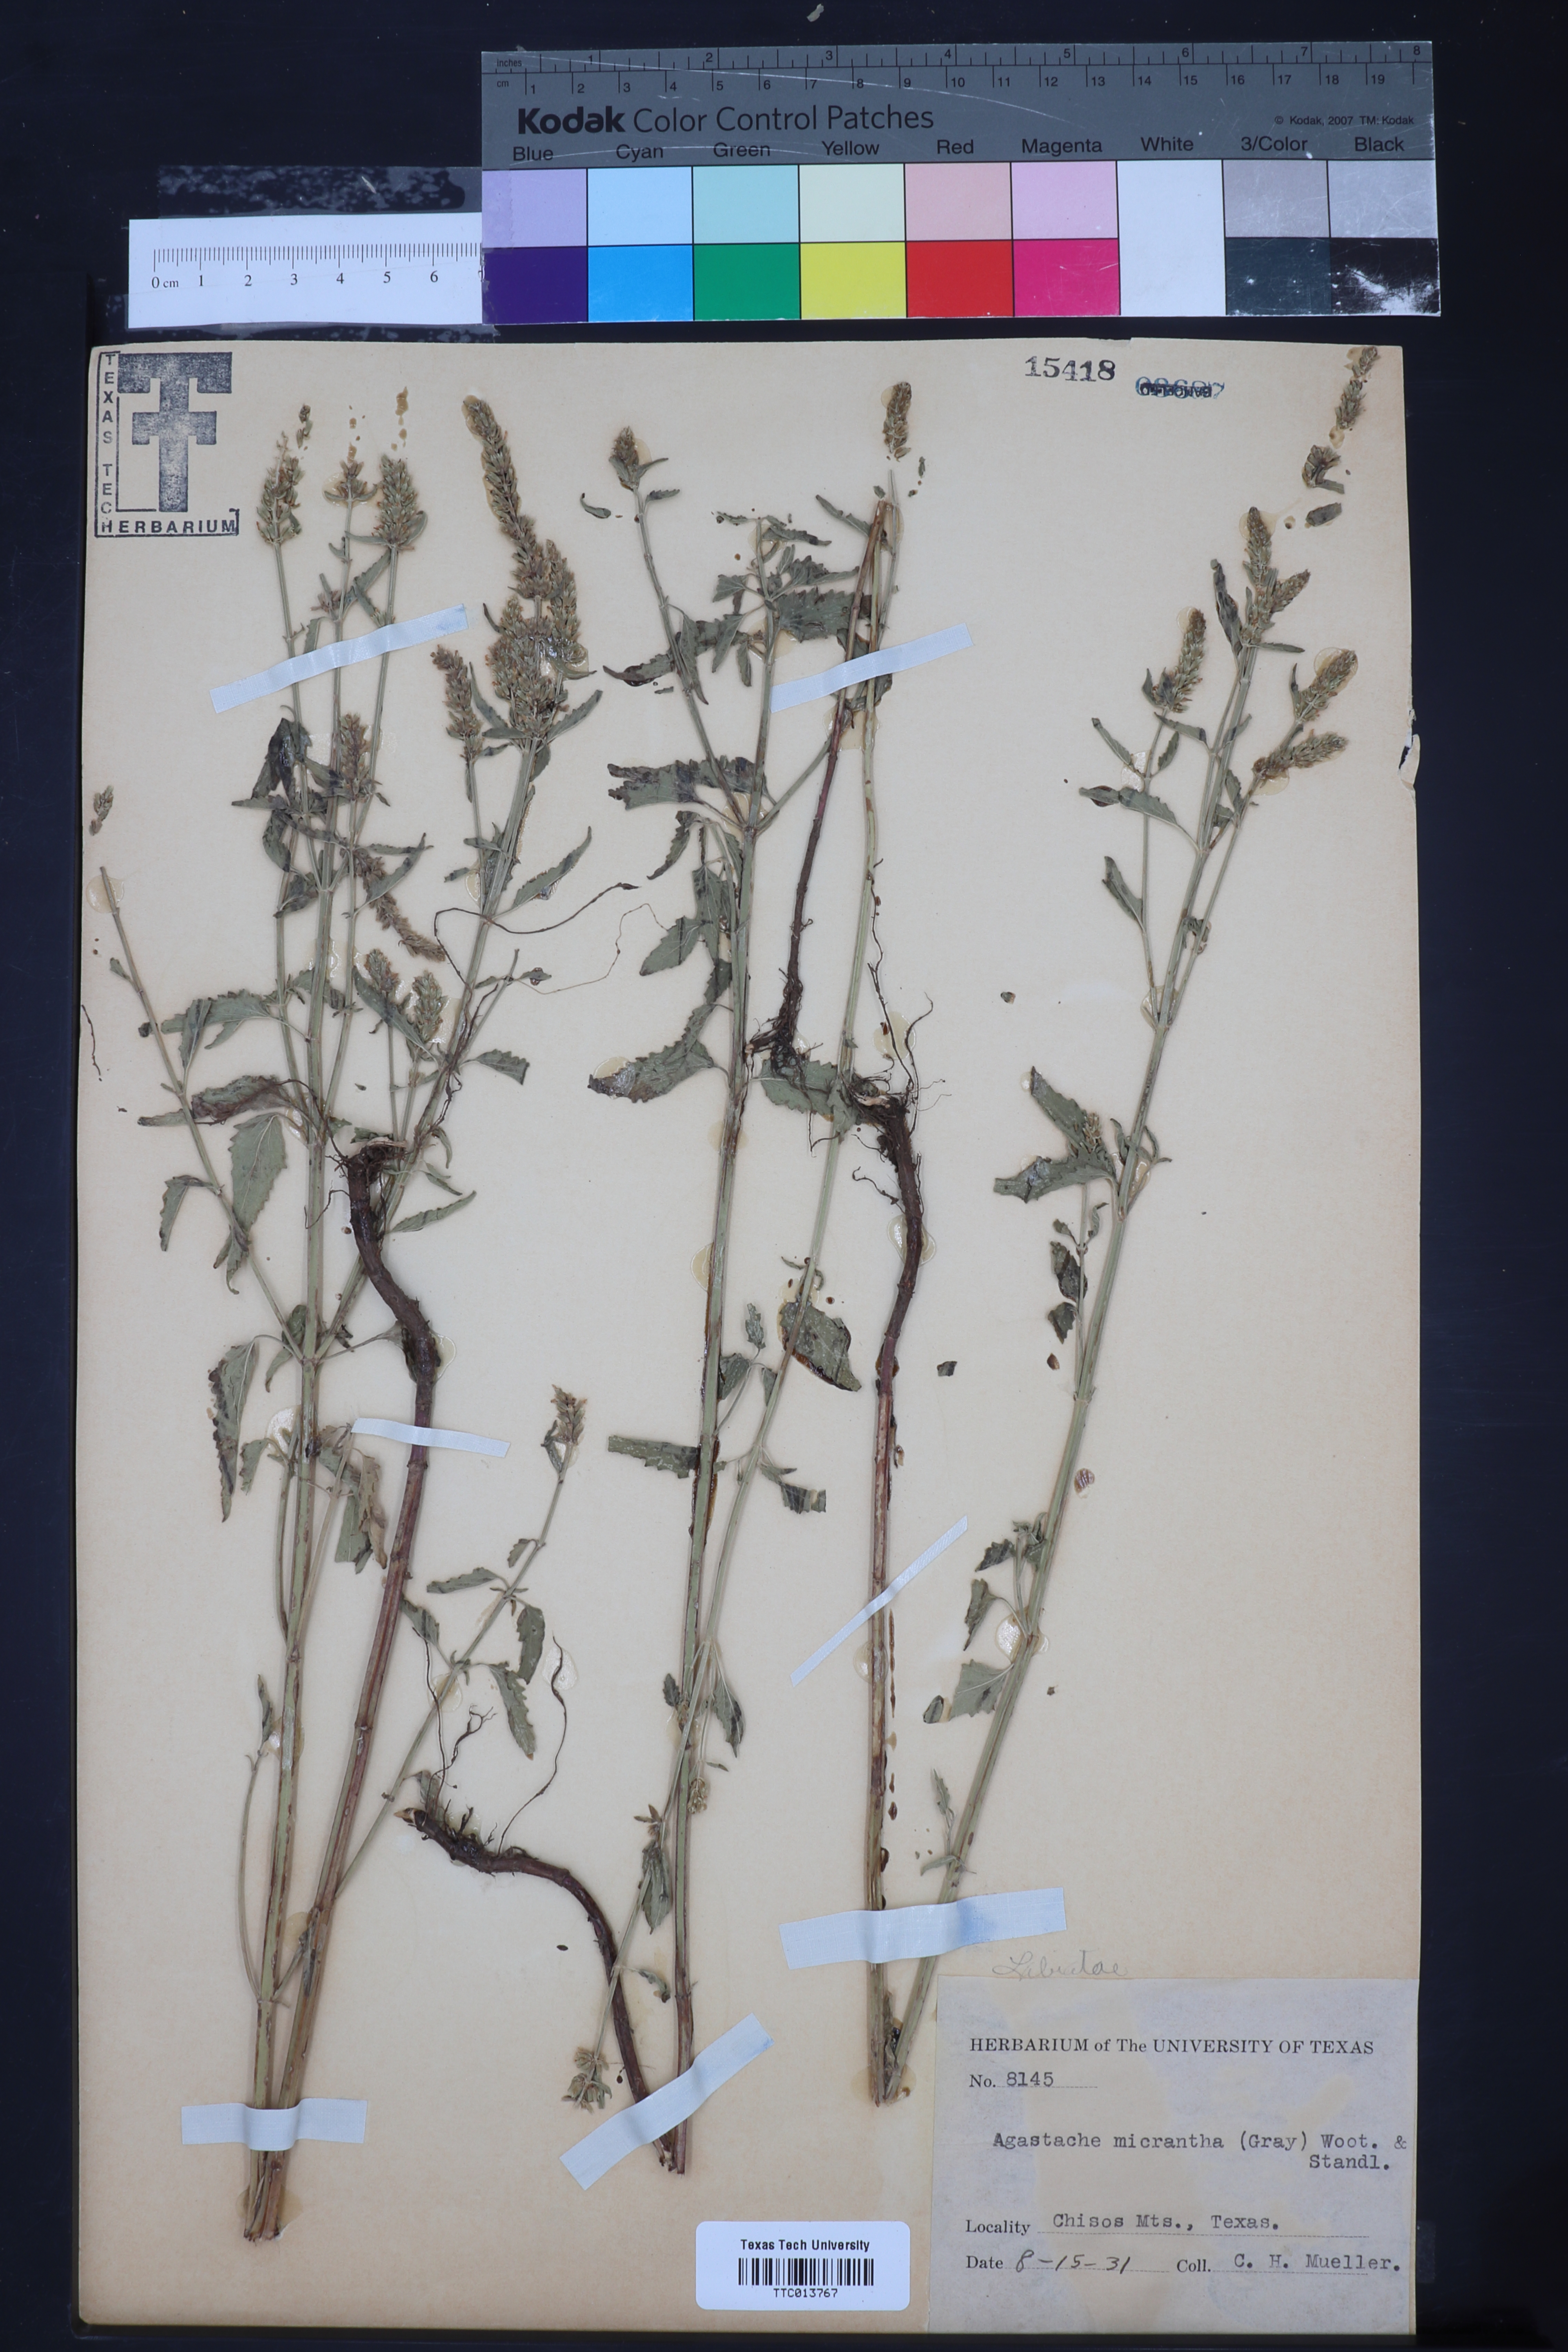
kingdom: Plantae
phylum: Tracheophyta
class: Magnoliopsida
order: Lamiales
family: Lamiaceae
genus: Agastache
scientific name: Agastache micrantha
